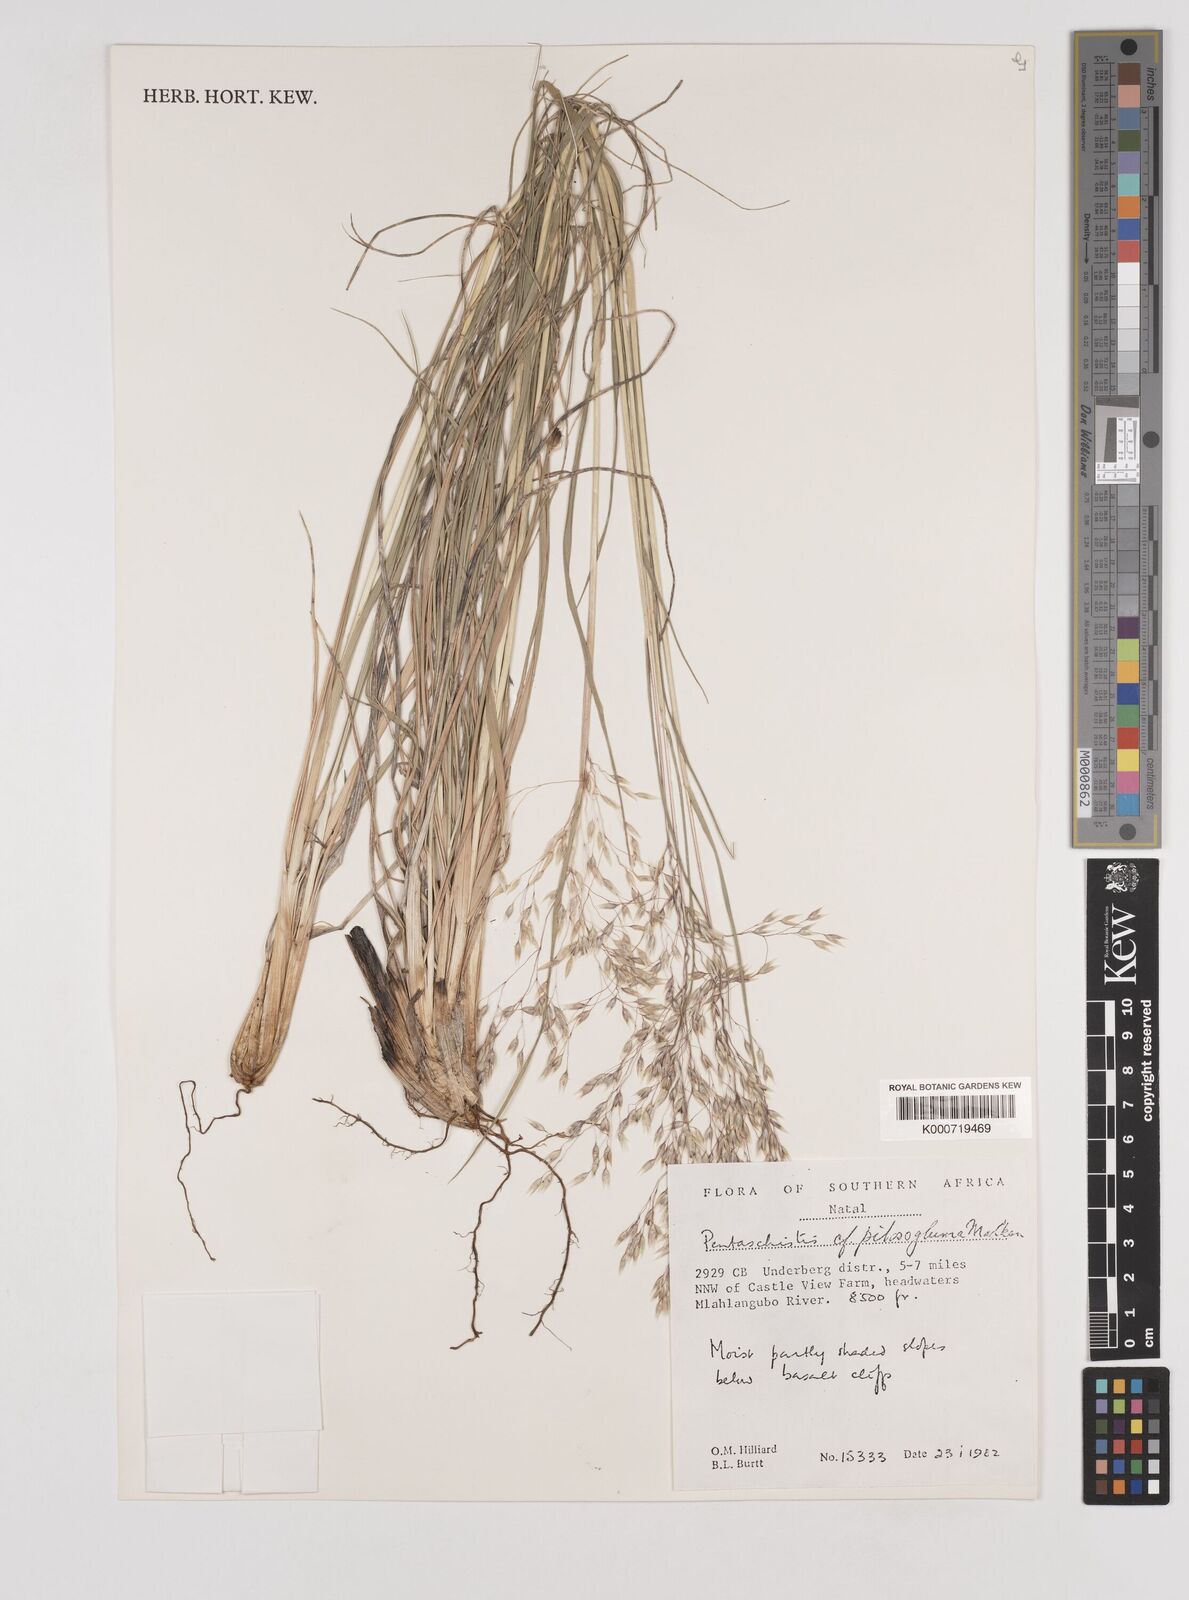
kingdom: Plantae
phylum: Tracheophyta
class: Liliopsida
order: Poales
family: Poaceae
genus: Pentameris
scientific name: Pentameris aurea
